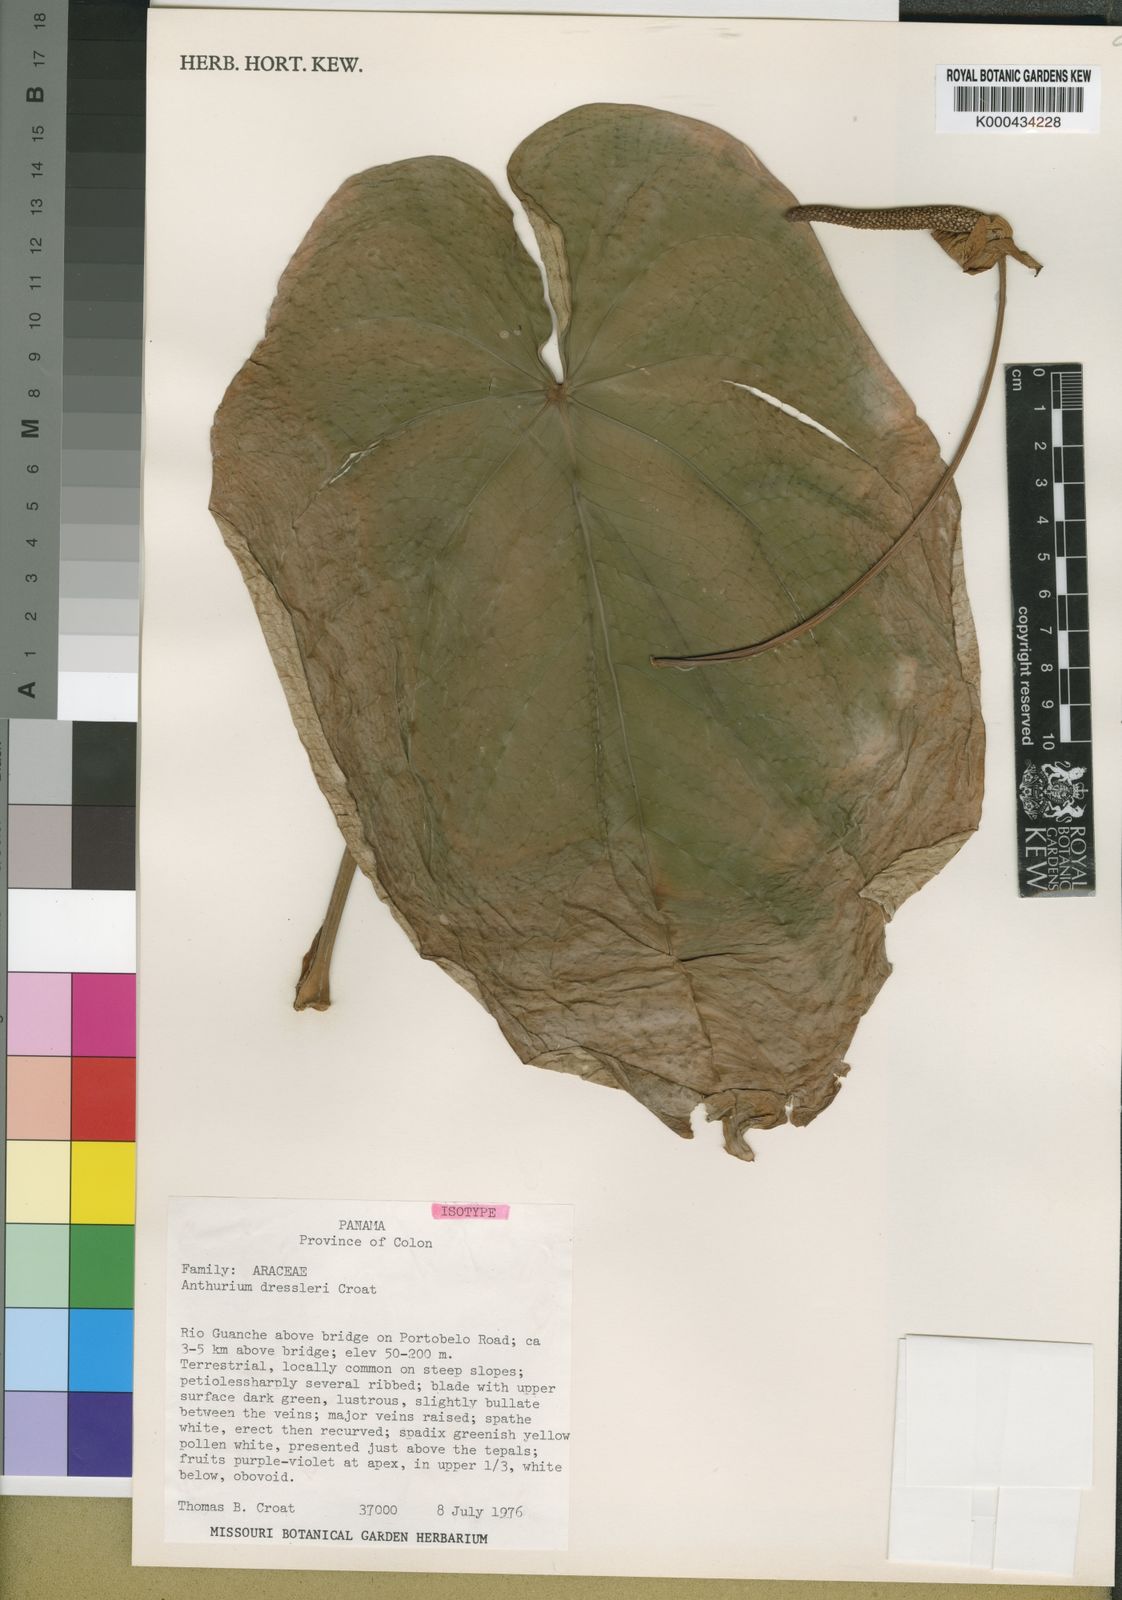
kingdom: Plantae
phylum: Tracheophyta
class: Liliopsida
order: Alismatales
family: Araceae
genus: Anthurium
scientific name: Anthurium dressleri
